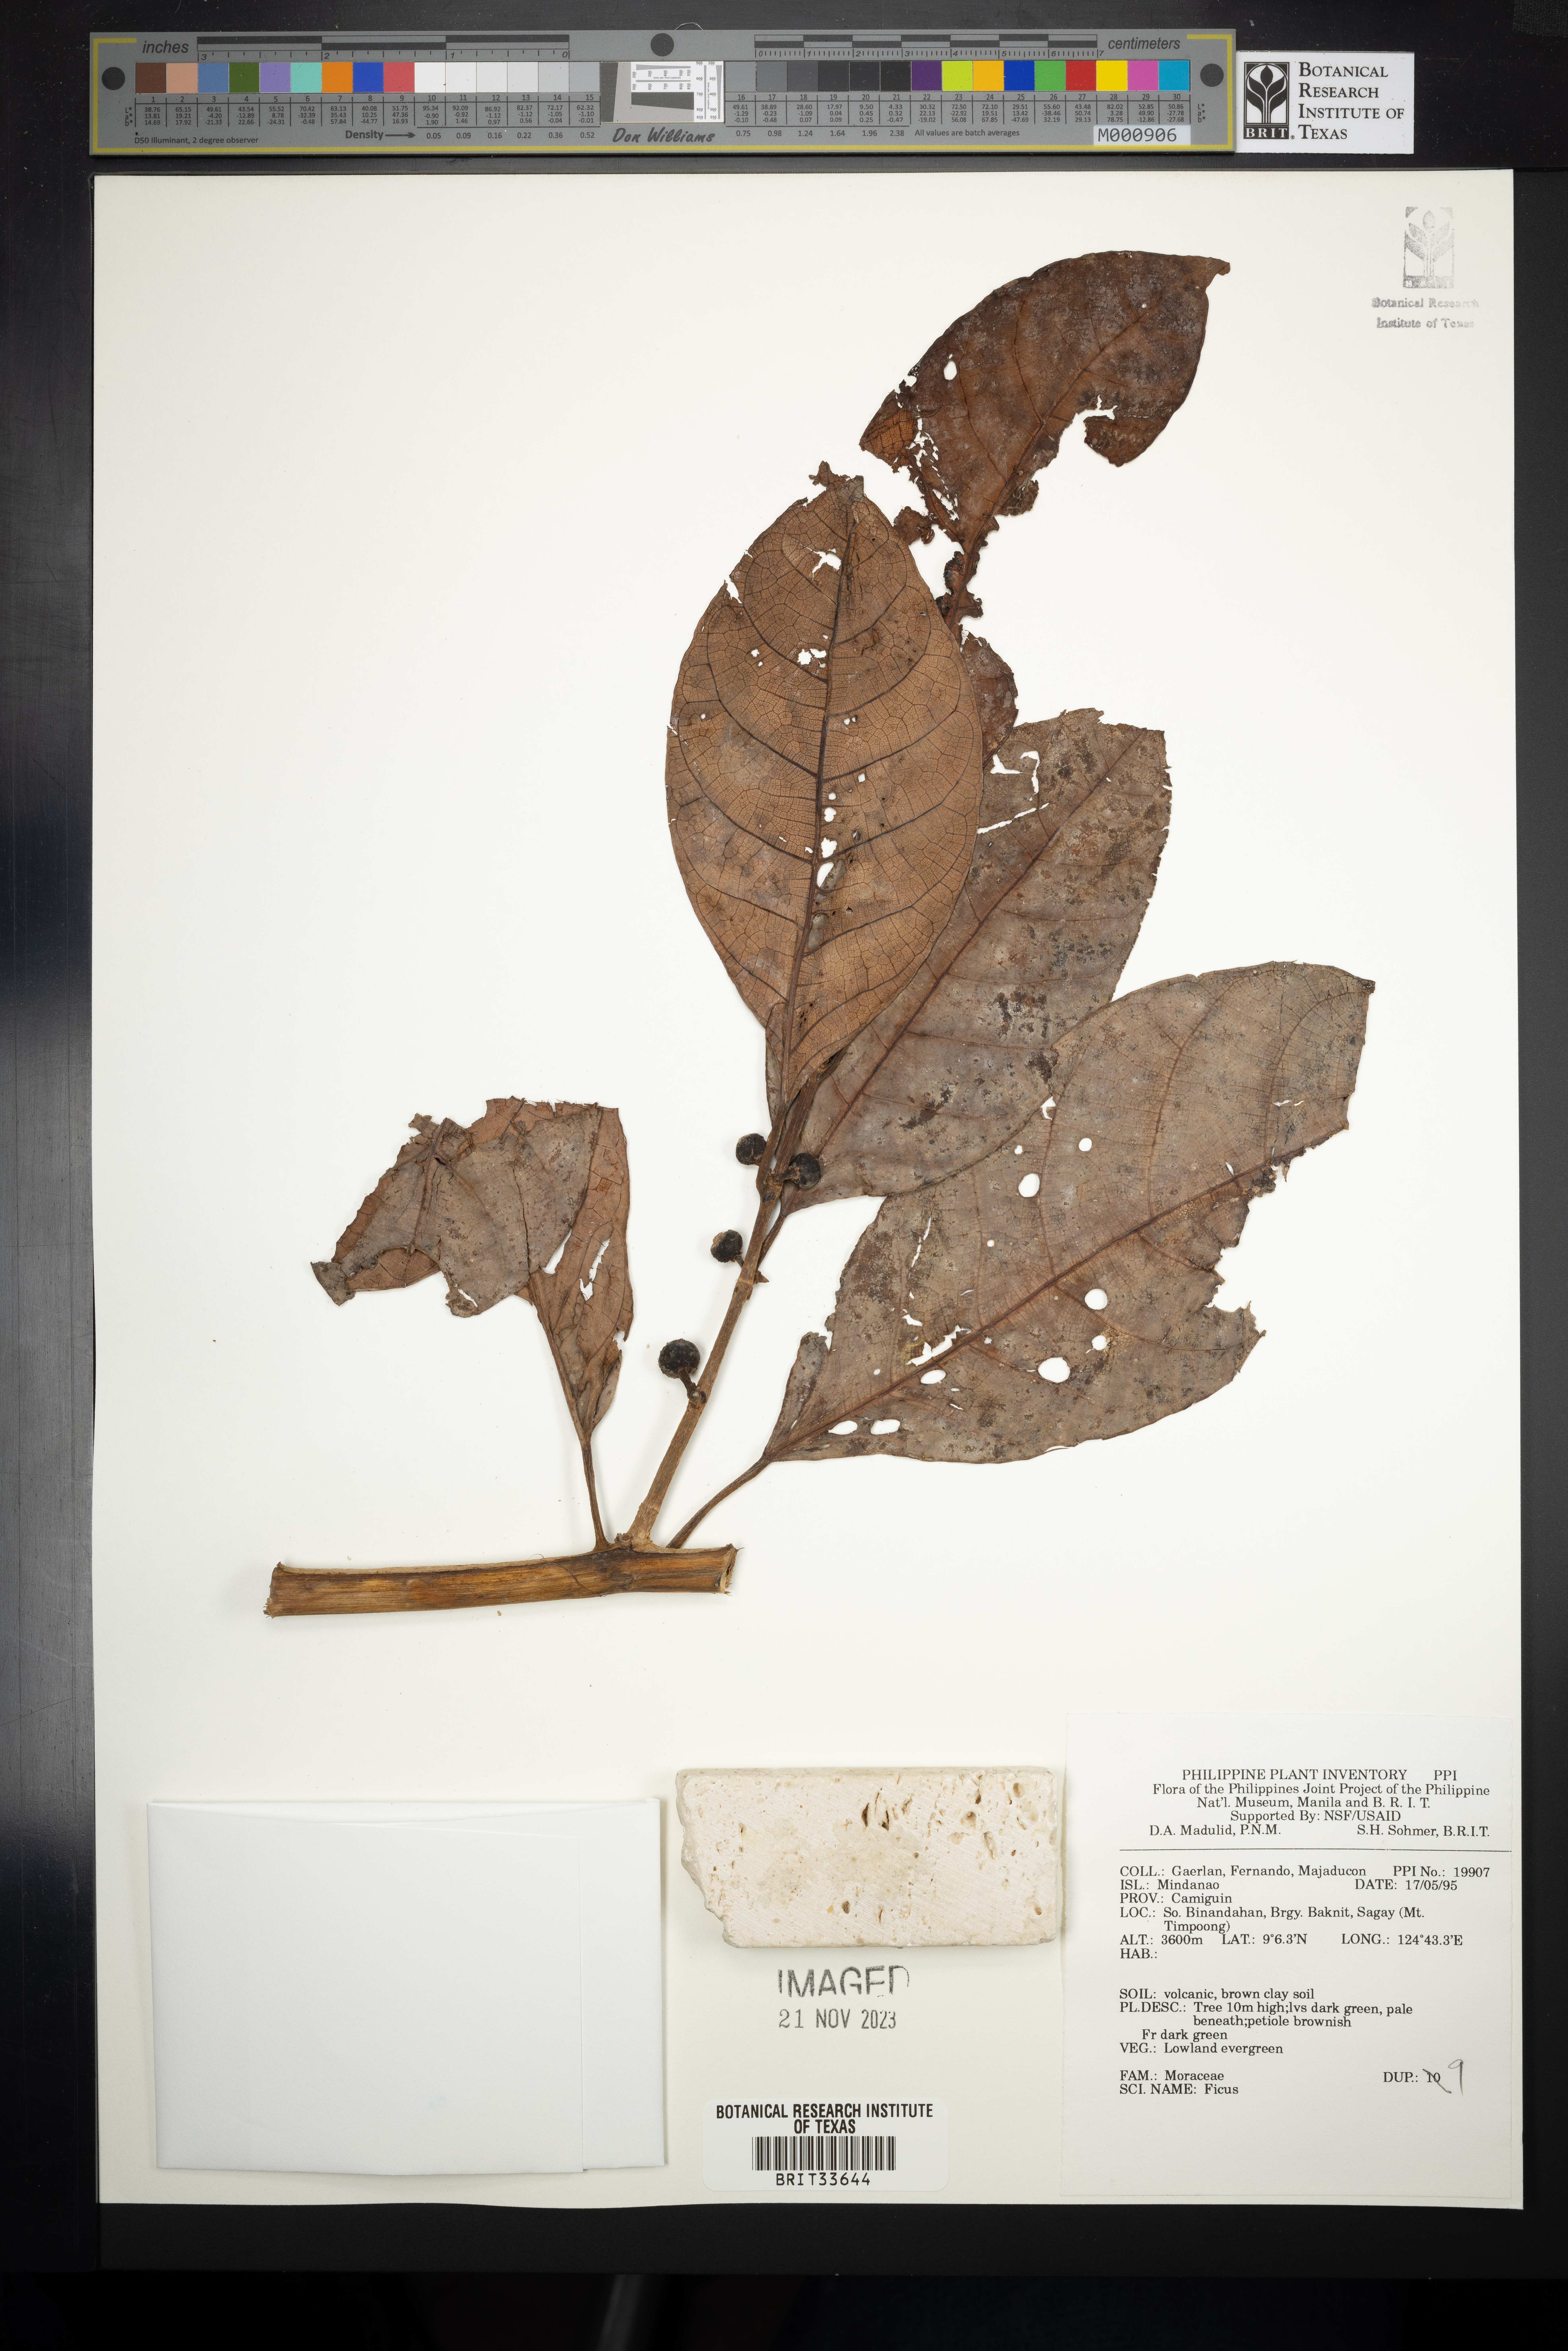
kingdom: Plantae
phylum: Tracheophyta
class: Magnoliopsida
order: Rosales
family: Moraceae
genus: Ficus
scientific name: Ficus
